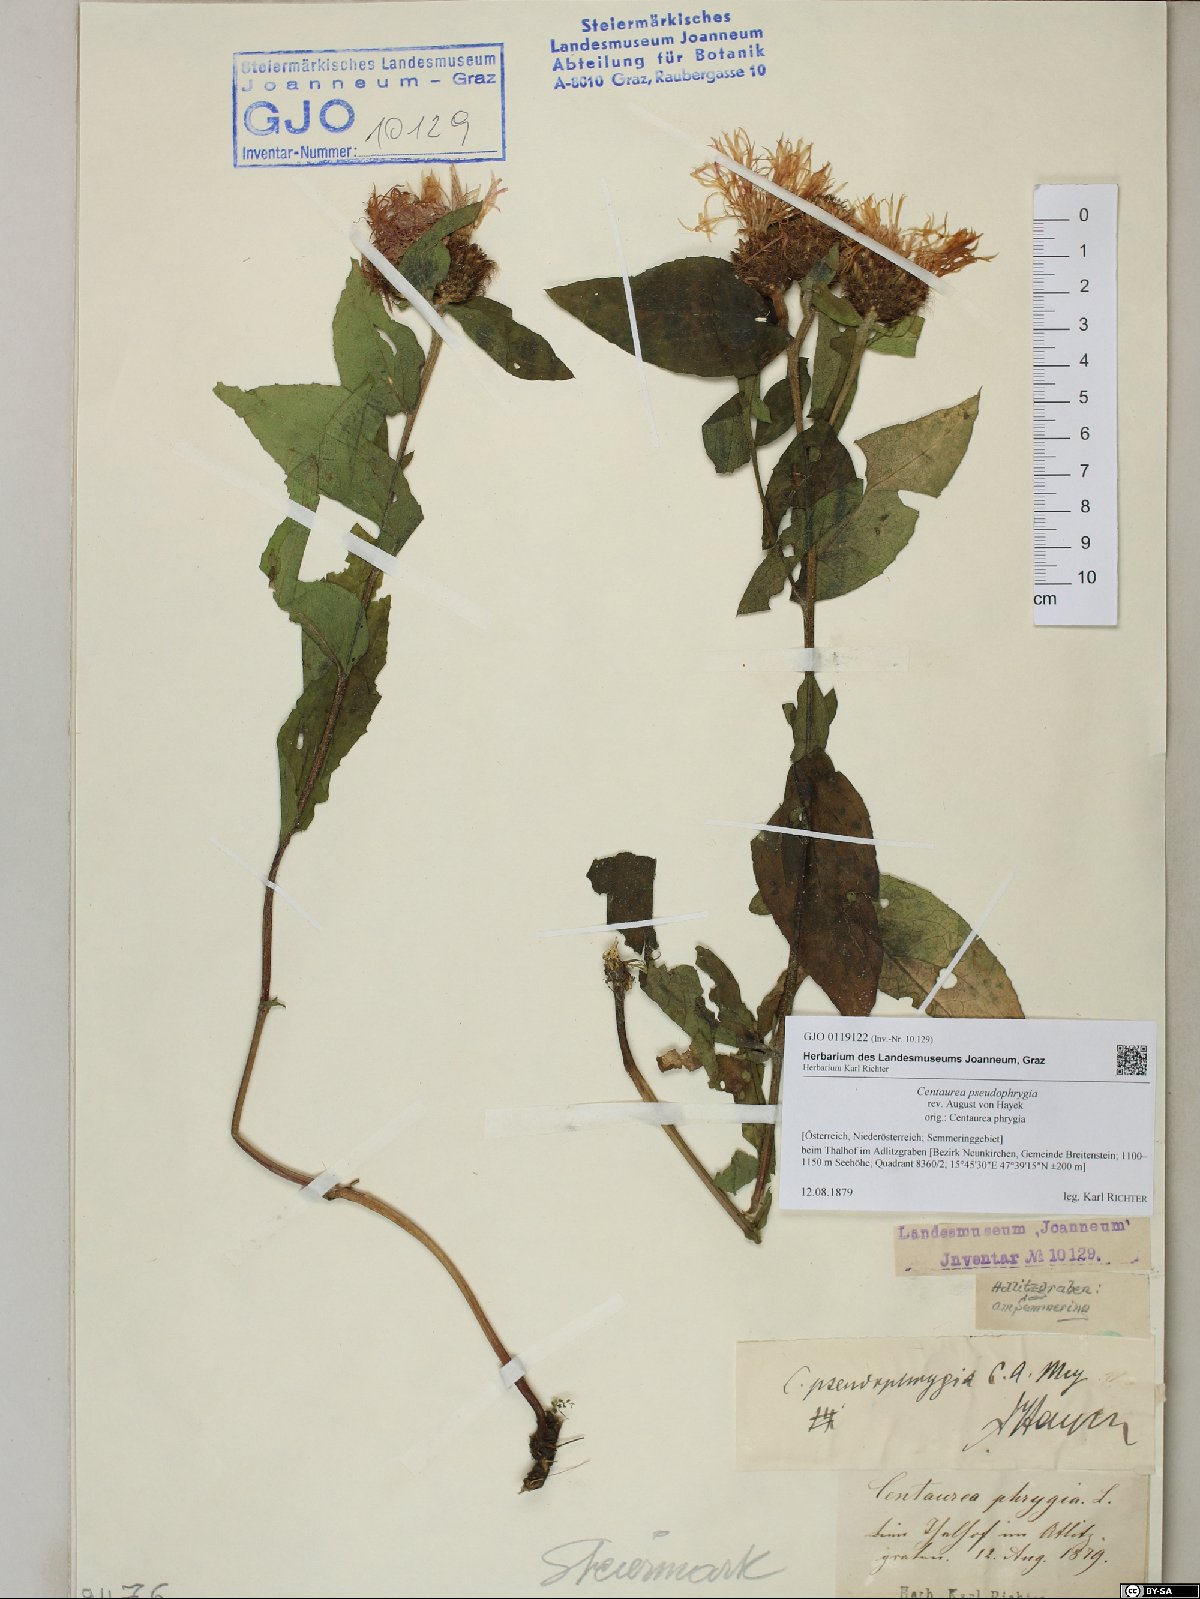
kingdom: Plantae
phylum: Tracheophyta
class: Magnoliopsida
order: Asterales
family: Asteraceae
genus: Centaurea
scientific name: Centaurea pseudophrygia
